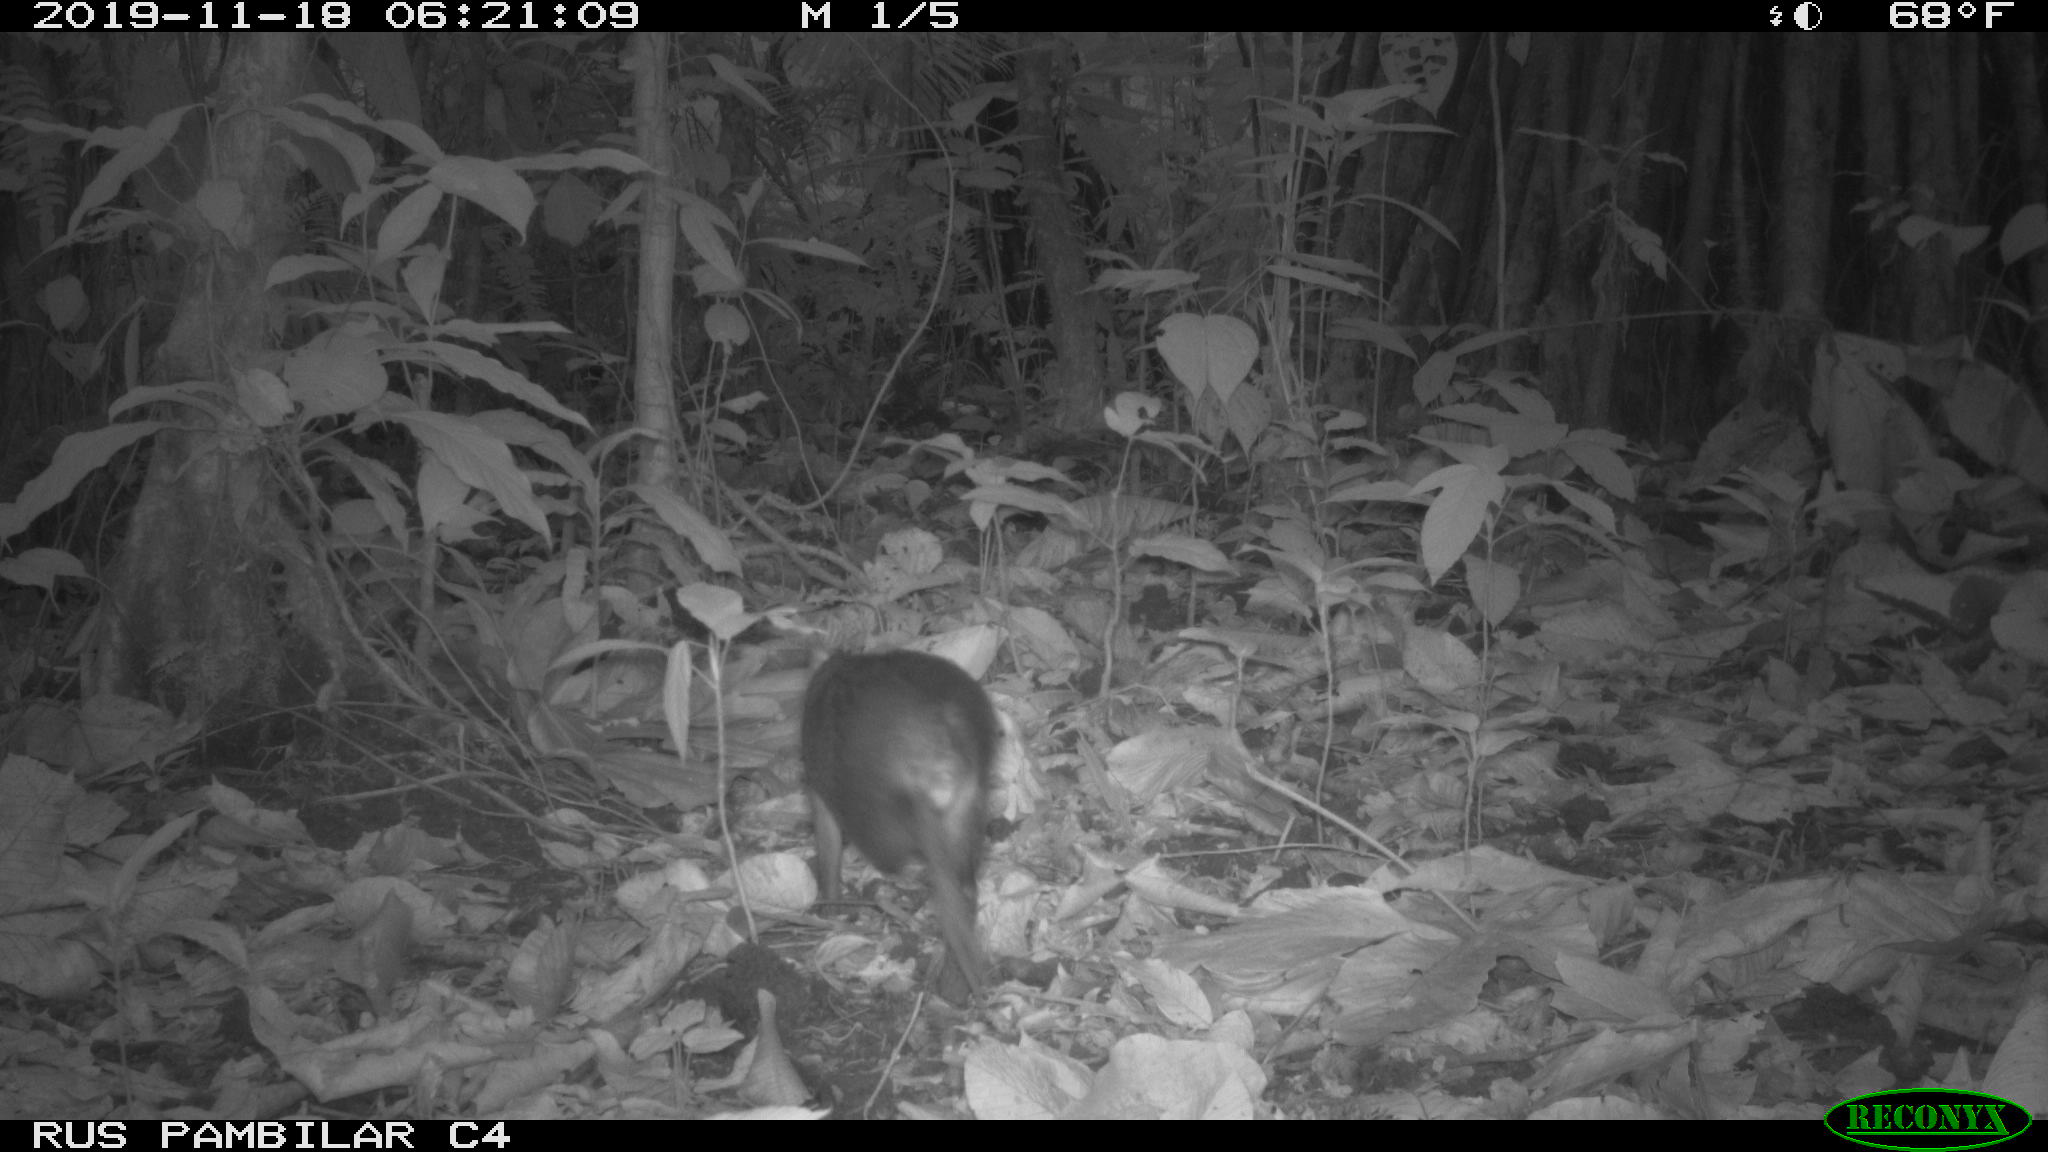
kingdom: Animalia
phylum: Chordata
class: Mammalia
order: Rodentia
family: Dasyproctidae
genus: Dasyprocta
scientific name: Dasyprocta punctata
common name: Central american agouti
